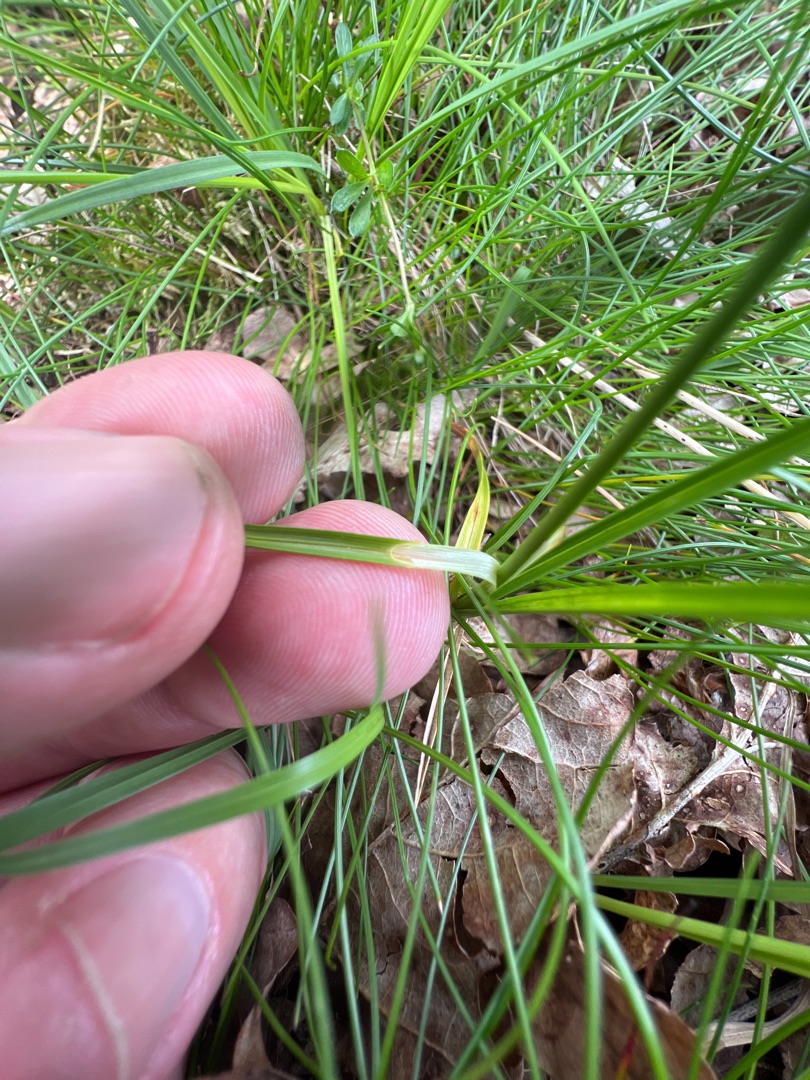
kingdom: Plantae
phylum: Tracheophyta
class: Liliopsida
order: Poales
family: Cyperaceae
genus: Carex
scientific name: Carex arenaria
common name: Sand-star
